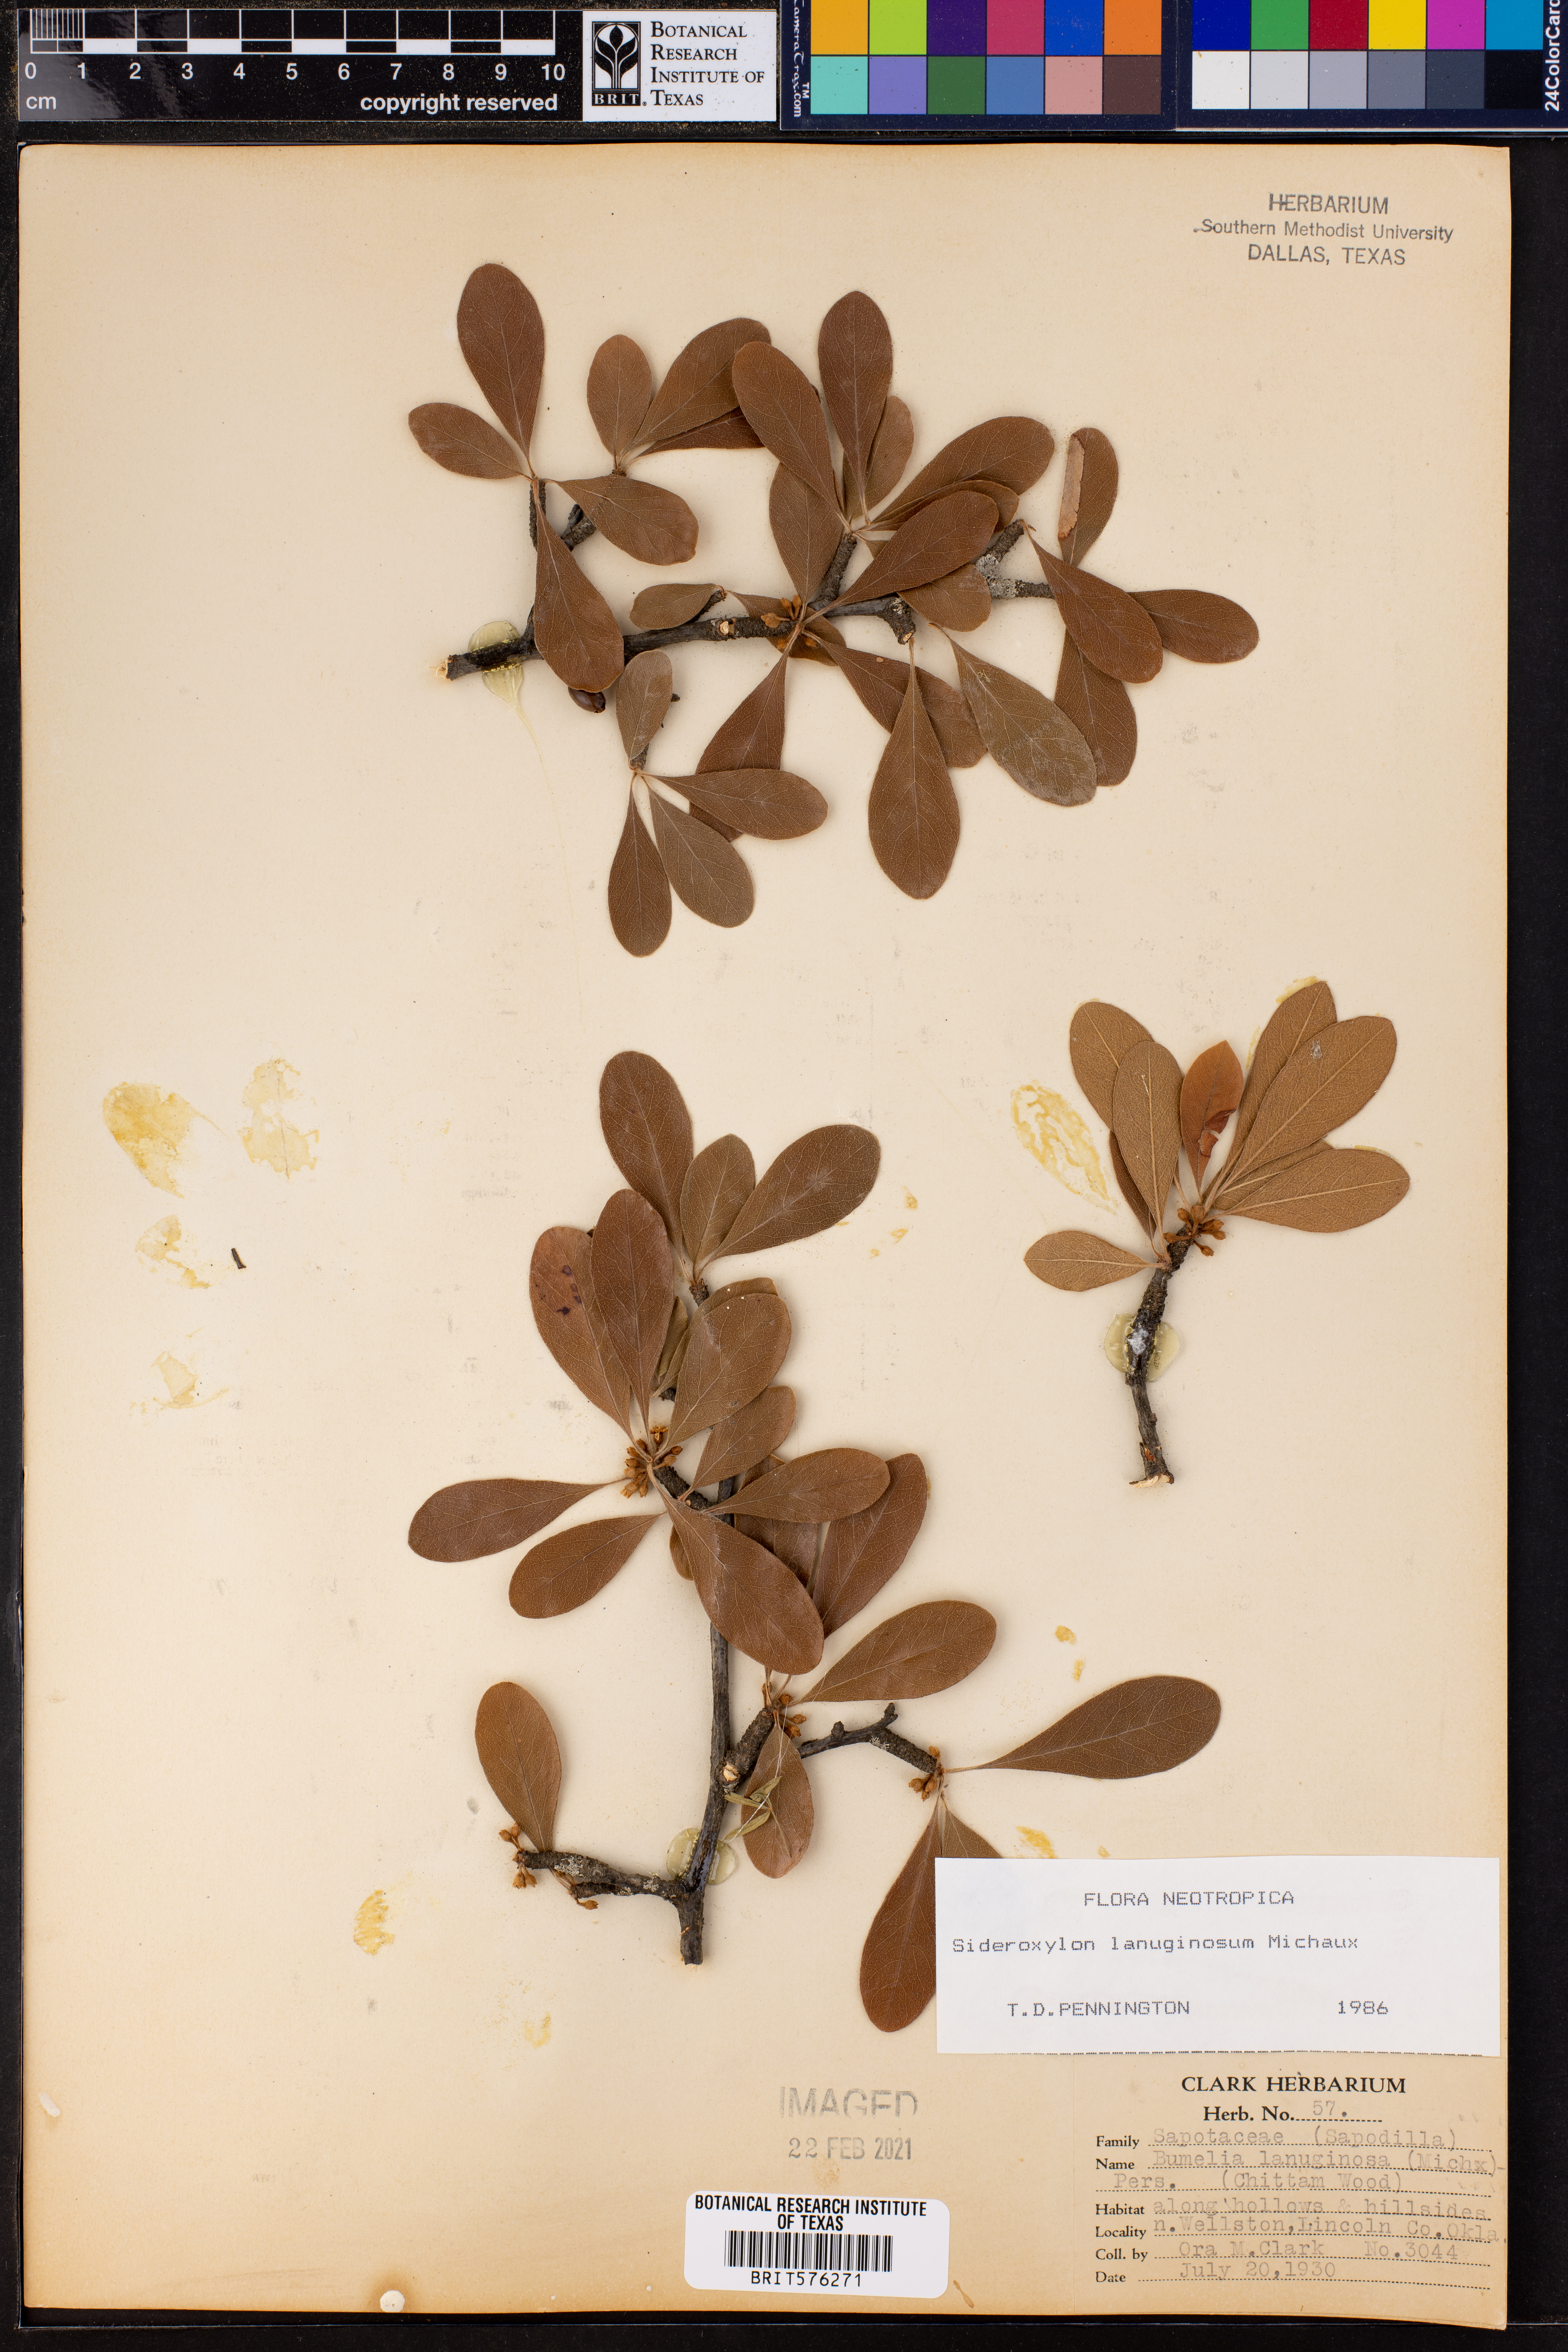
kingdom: Plantae
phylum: Tracheophyta
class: Magnoliopsida
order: Ericales
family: Sapotaceae
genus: Sideroxylon
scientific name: Sideroxylon lanuginosum
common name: Chittamwood
